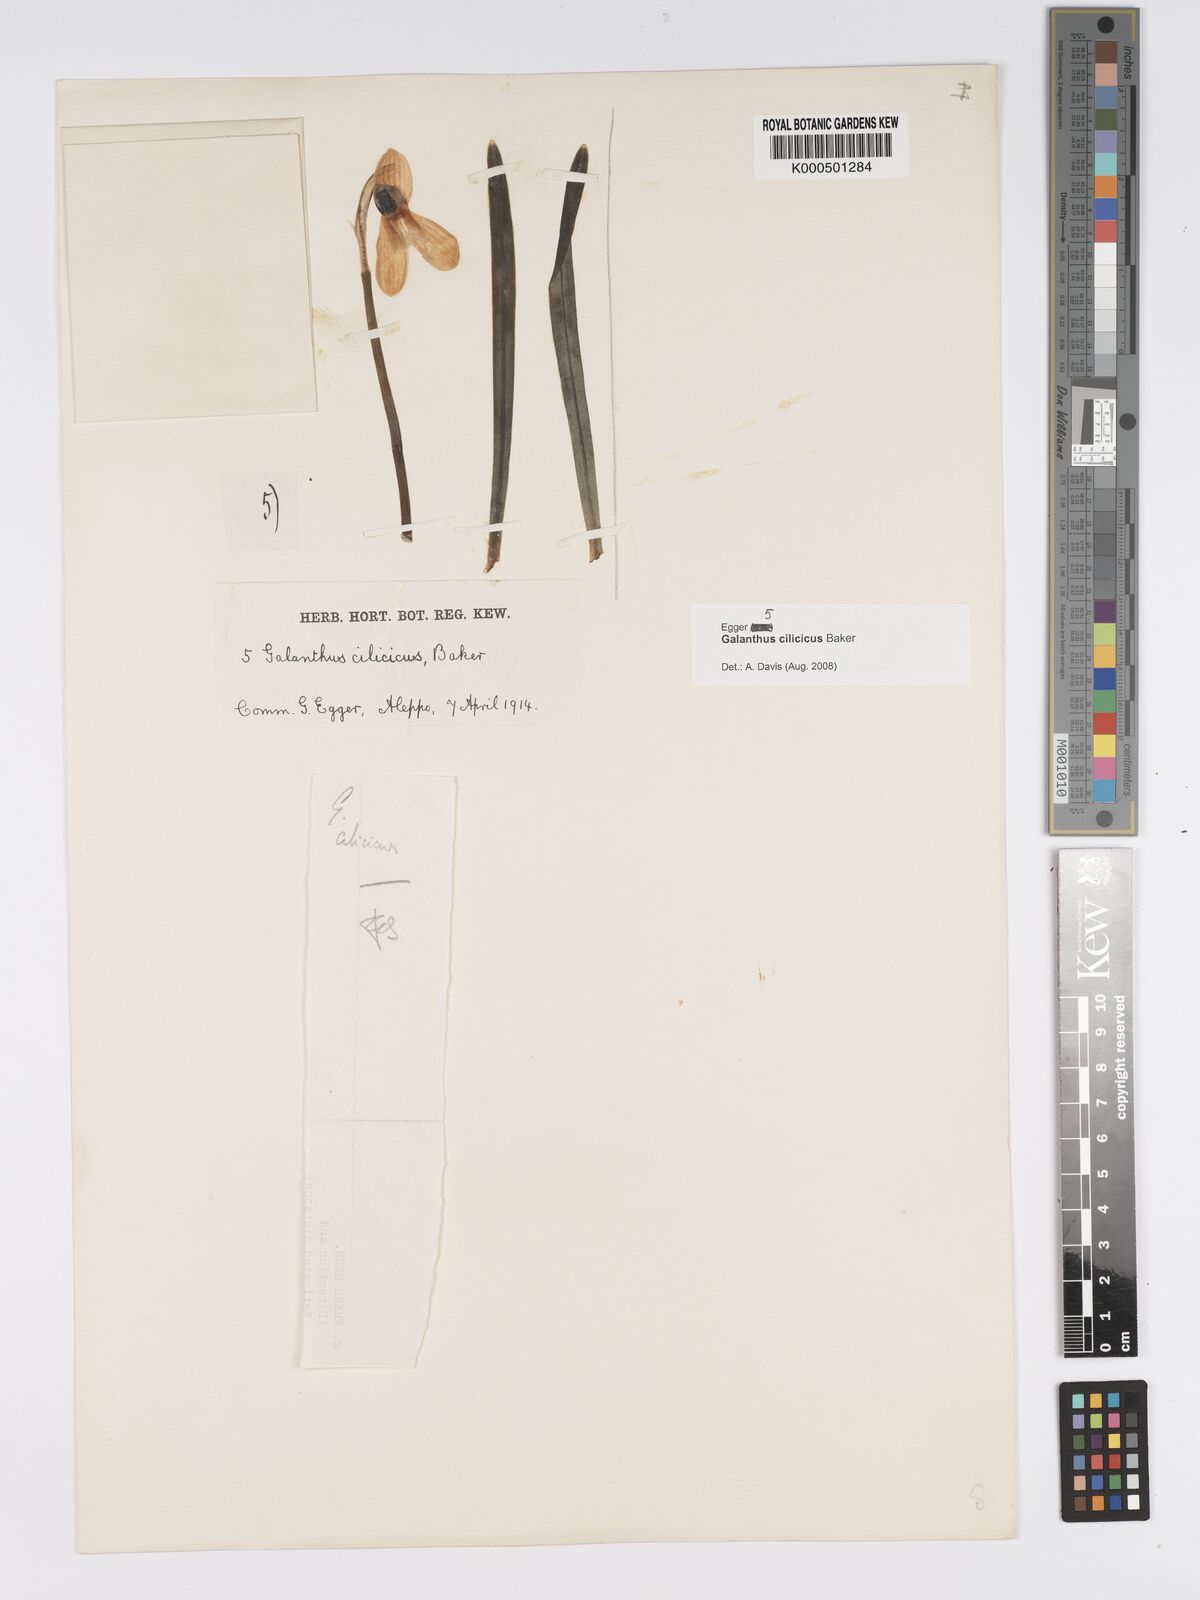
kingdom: Plantae
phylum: Tracheophyta
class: Liliopsida
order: Asparagales
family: Amaryllidaceae
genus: Galanthus
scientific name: Galanthus cilicicus
